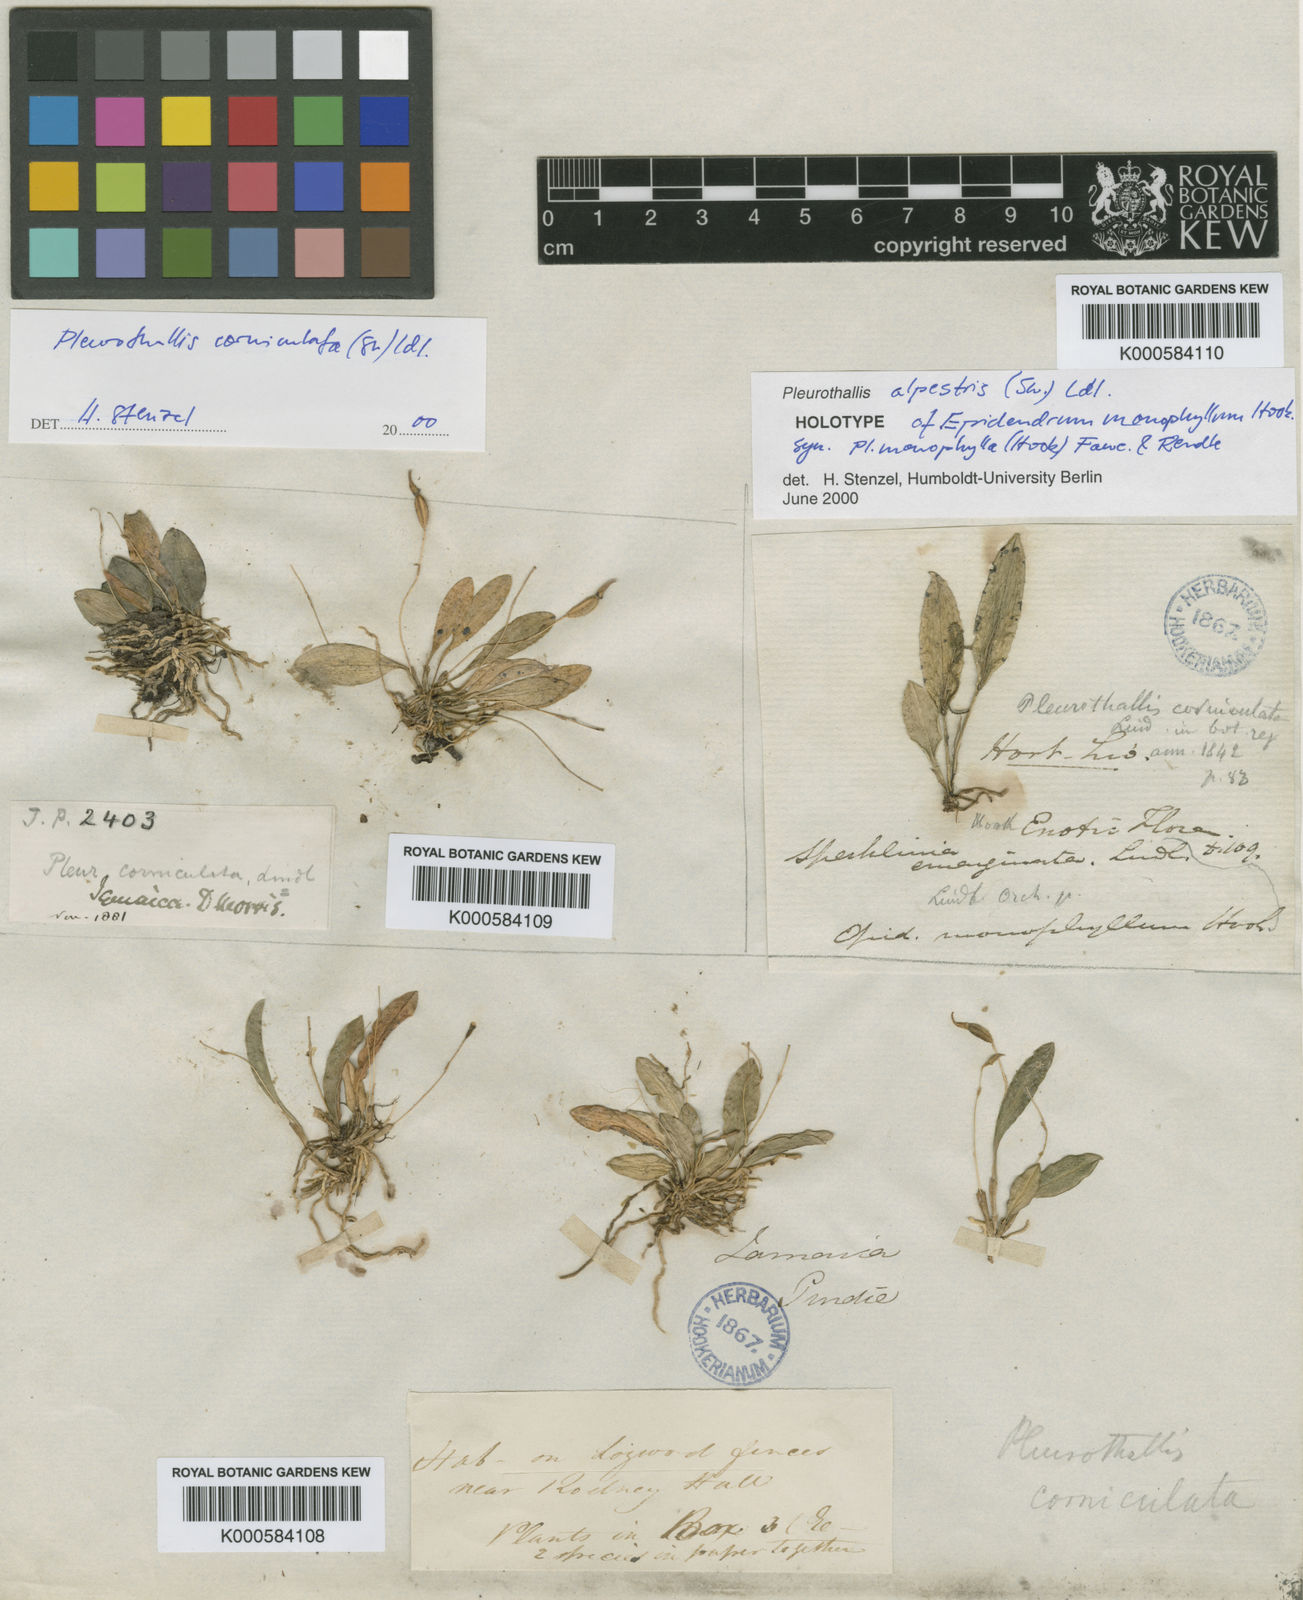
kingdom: Plantae
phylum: Tracheophyta
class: Liliopsida
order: Asparagales
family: Orchidaceae
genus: Specklinia
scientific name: Specklinia corniculata
